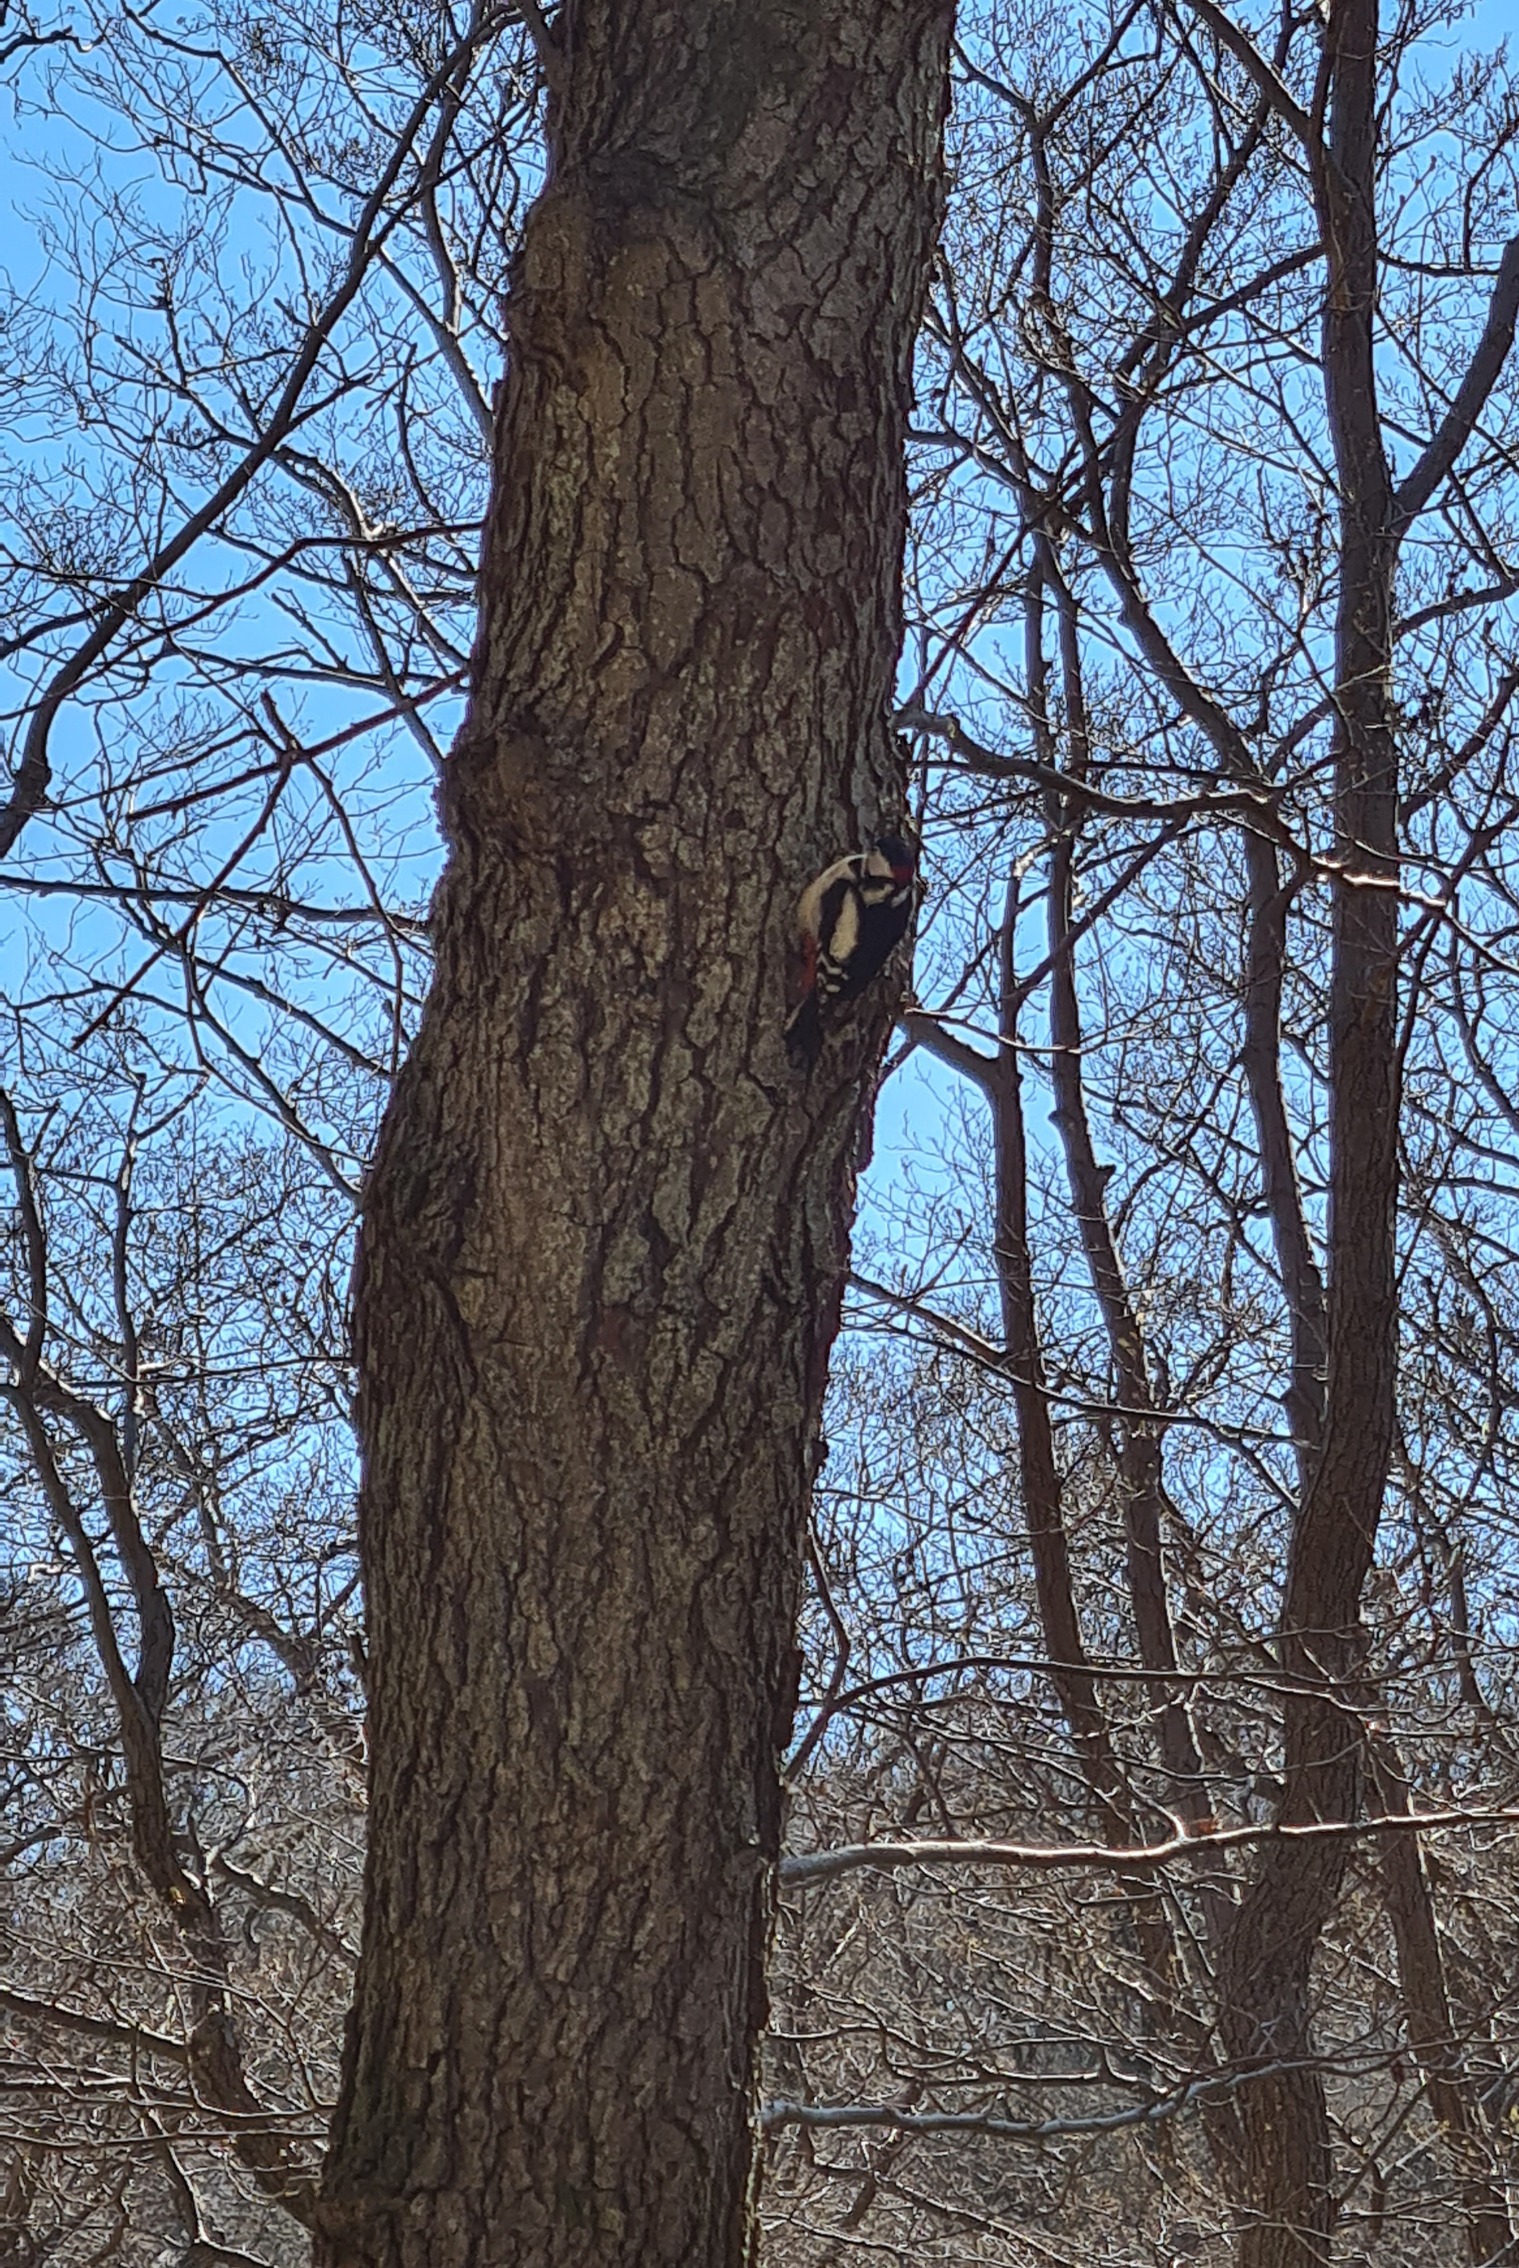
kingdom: Animalia
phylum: Chordata
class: Aves
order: Piciformes
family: Picidae
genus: Dendrocopos
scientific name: Dendrocopos major
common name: Stor flagspætte
